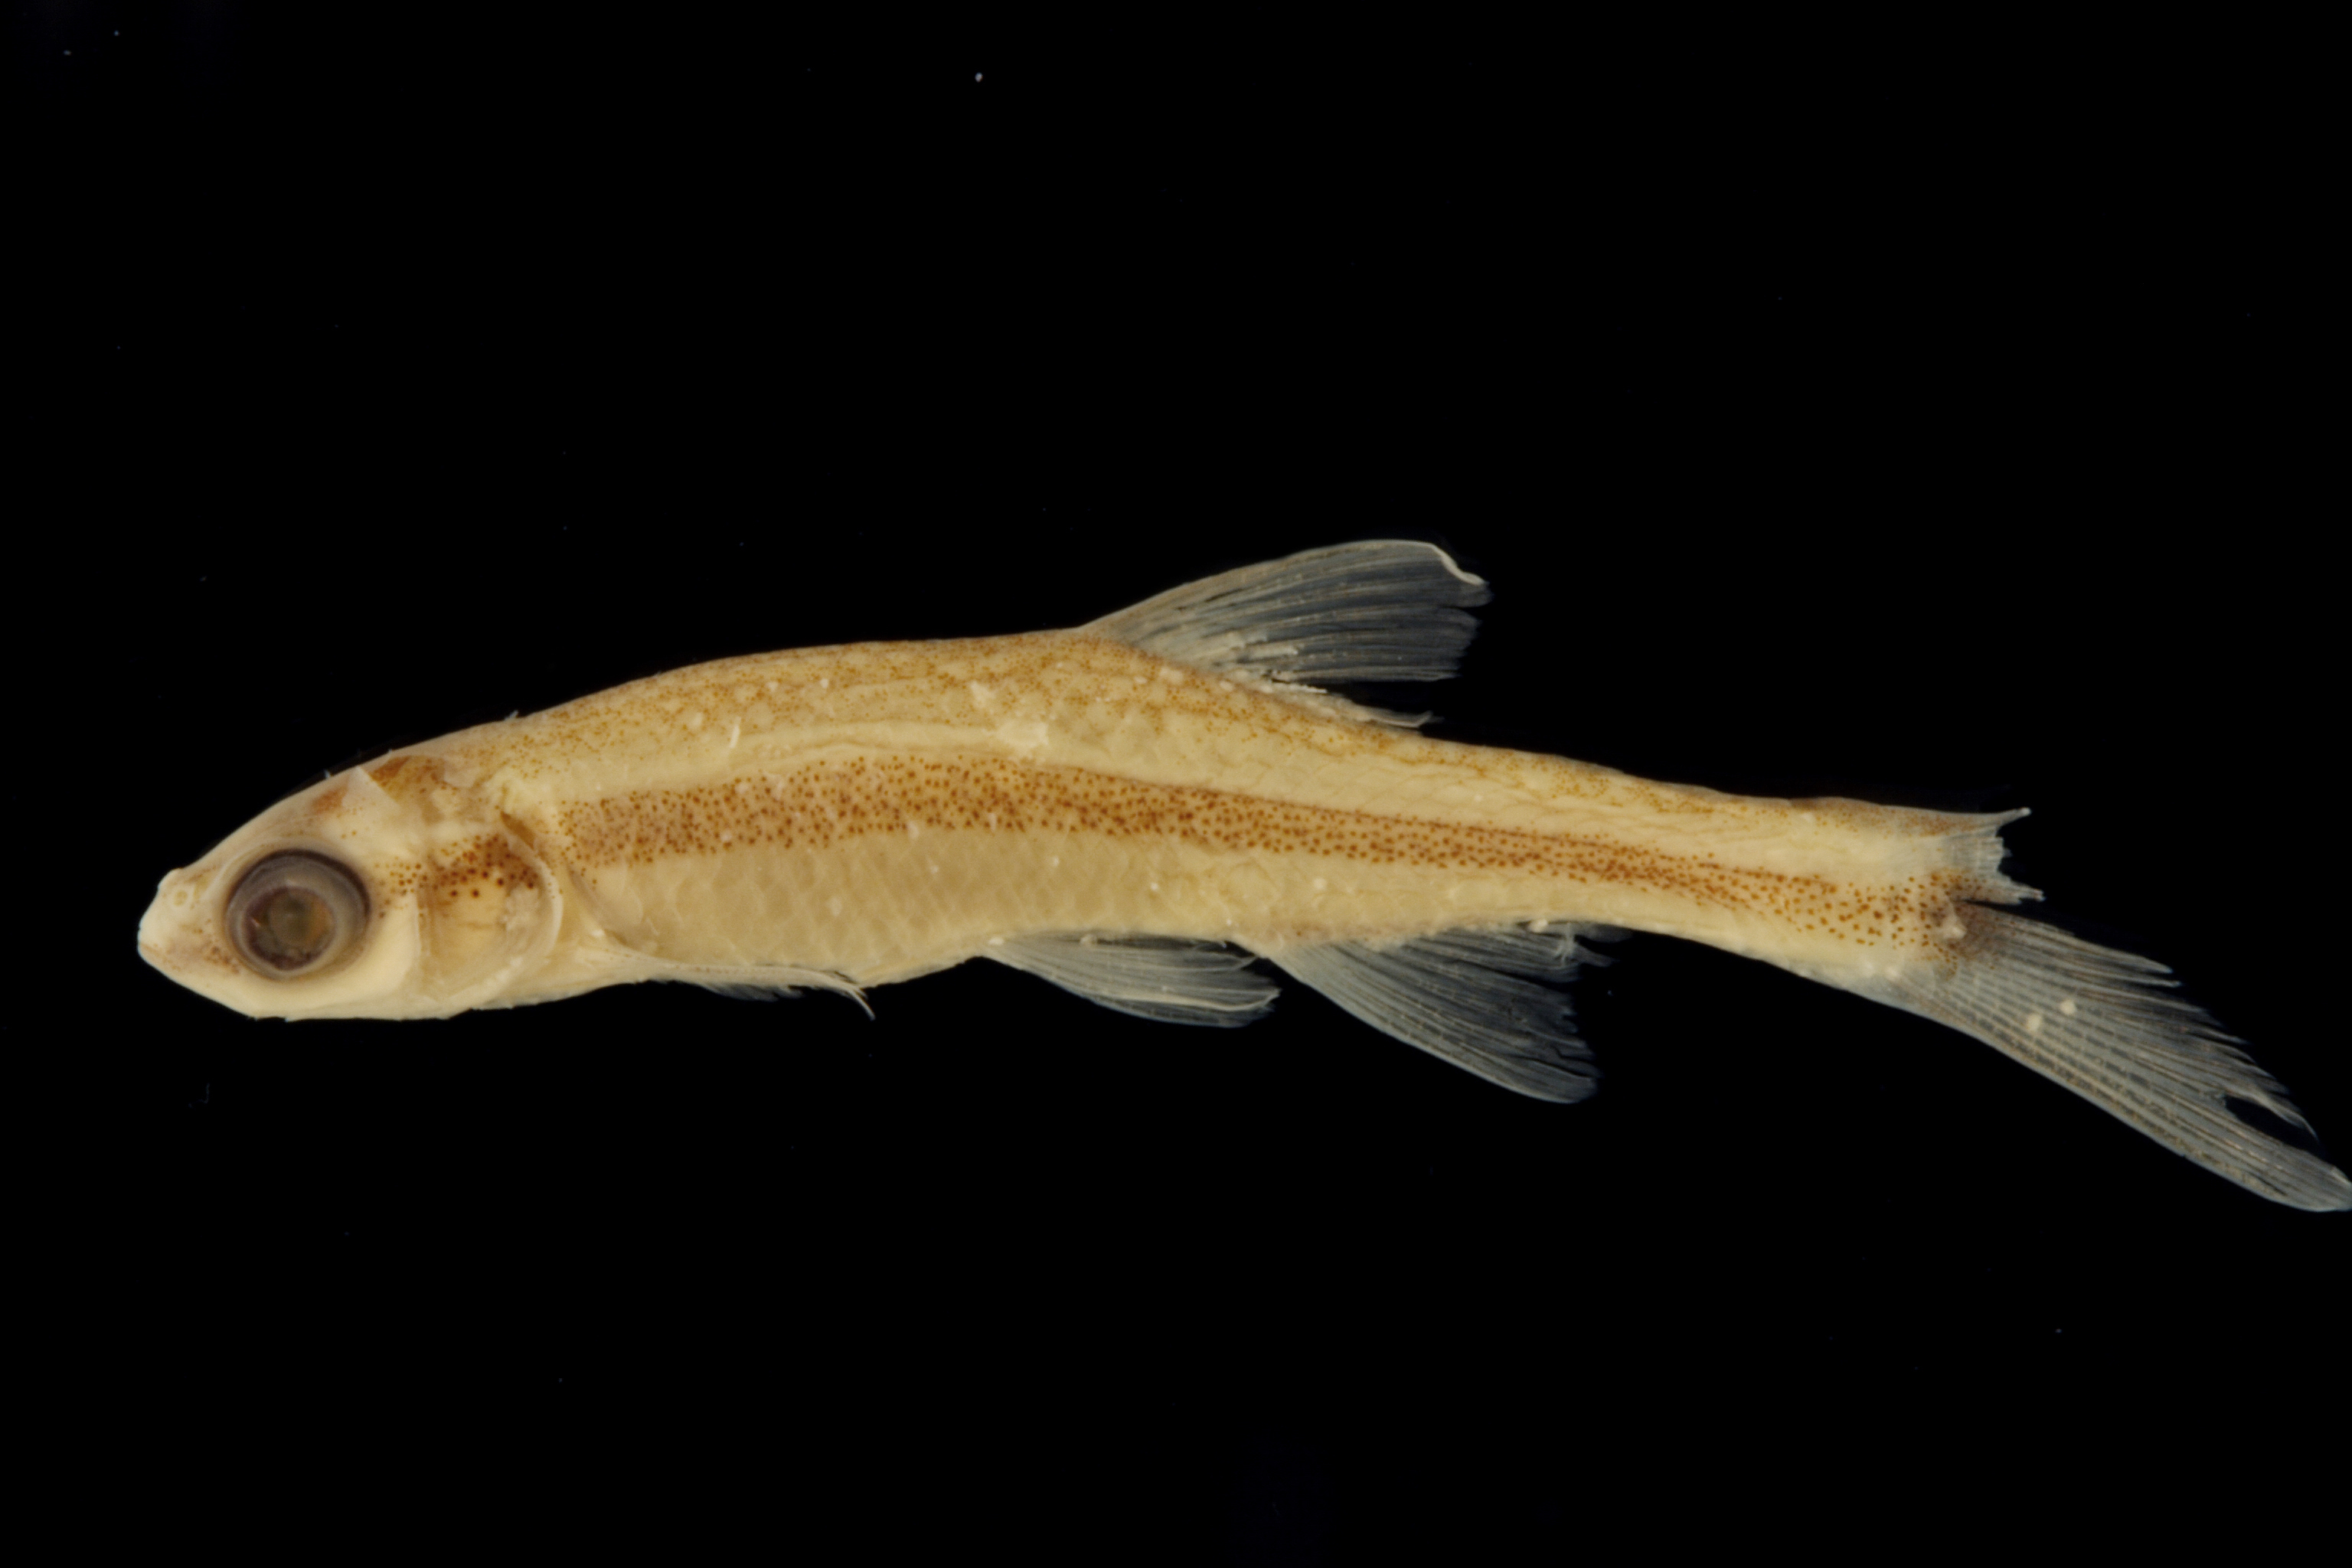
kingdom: Animalia
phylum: Chordata
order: Cypriniformes
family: Cyprinidae
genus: Pteronotropis
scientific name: Pteronotropis hubbsi
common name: Bluehead shiner
